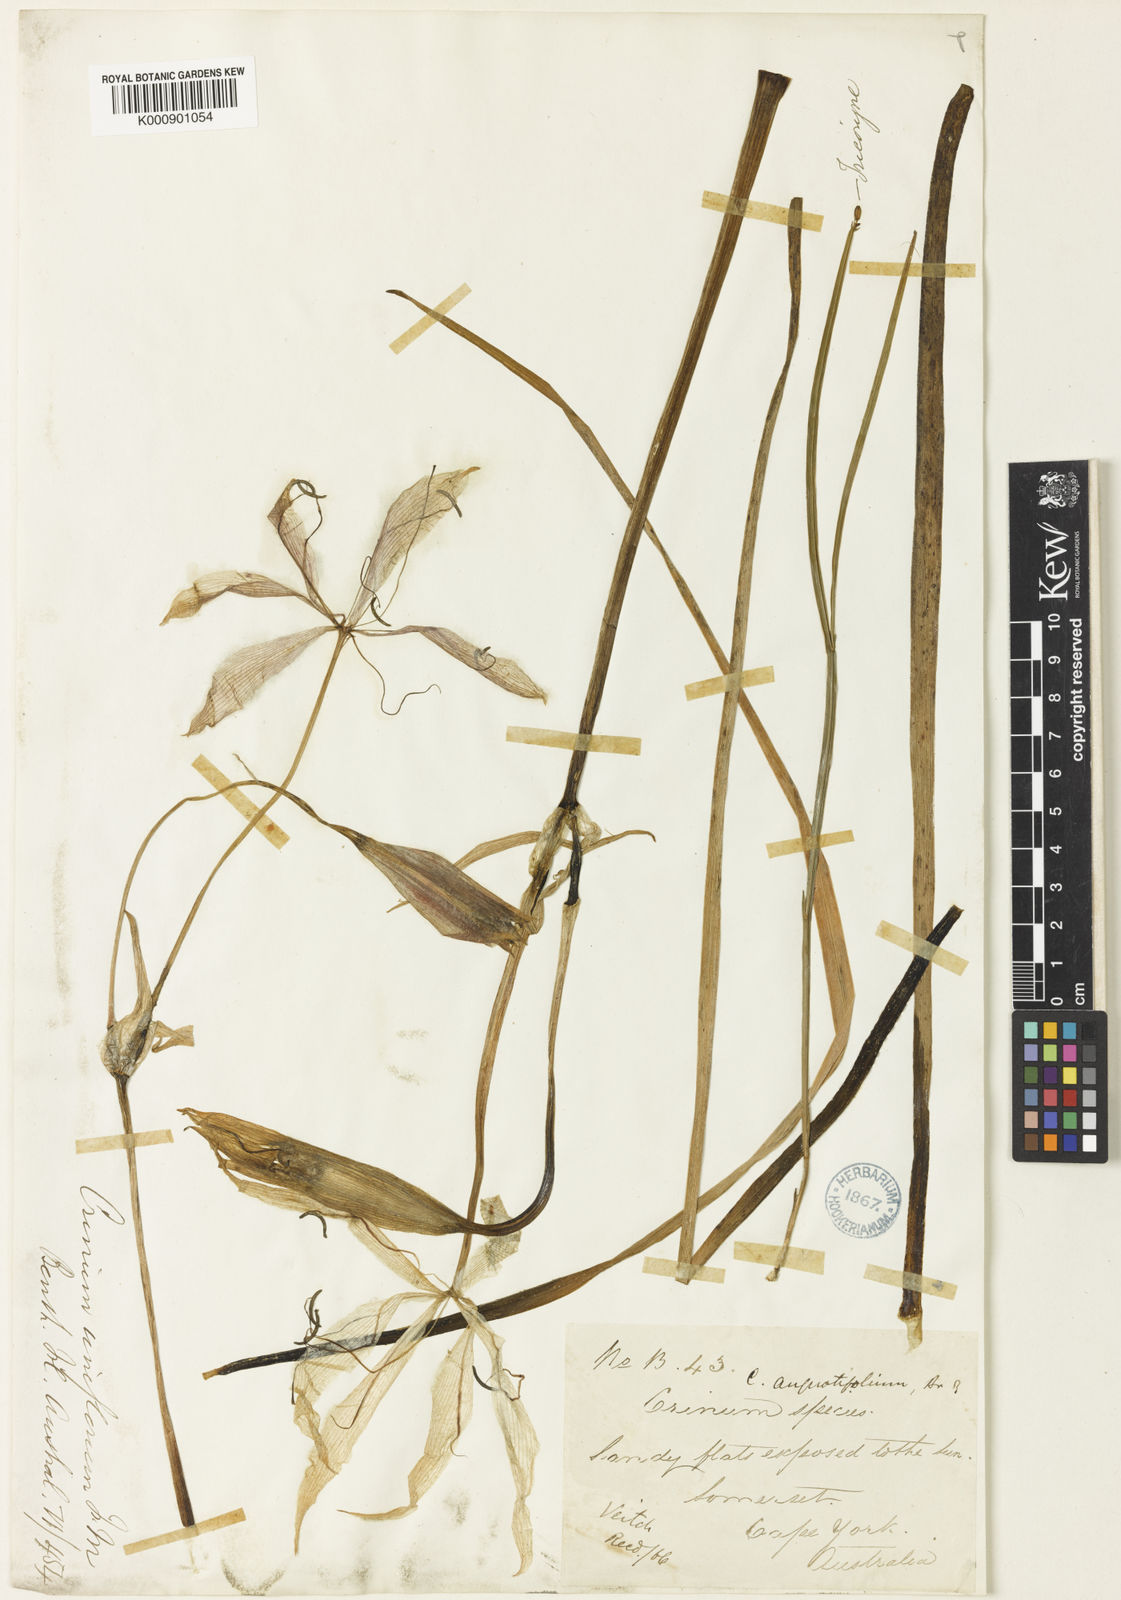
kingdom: Plantae
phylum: Tracheophyta
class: Liliopsida
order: Asparagales
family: Amaryllidaceae
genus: Crinum
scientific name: Crinum uniflorum
